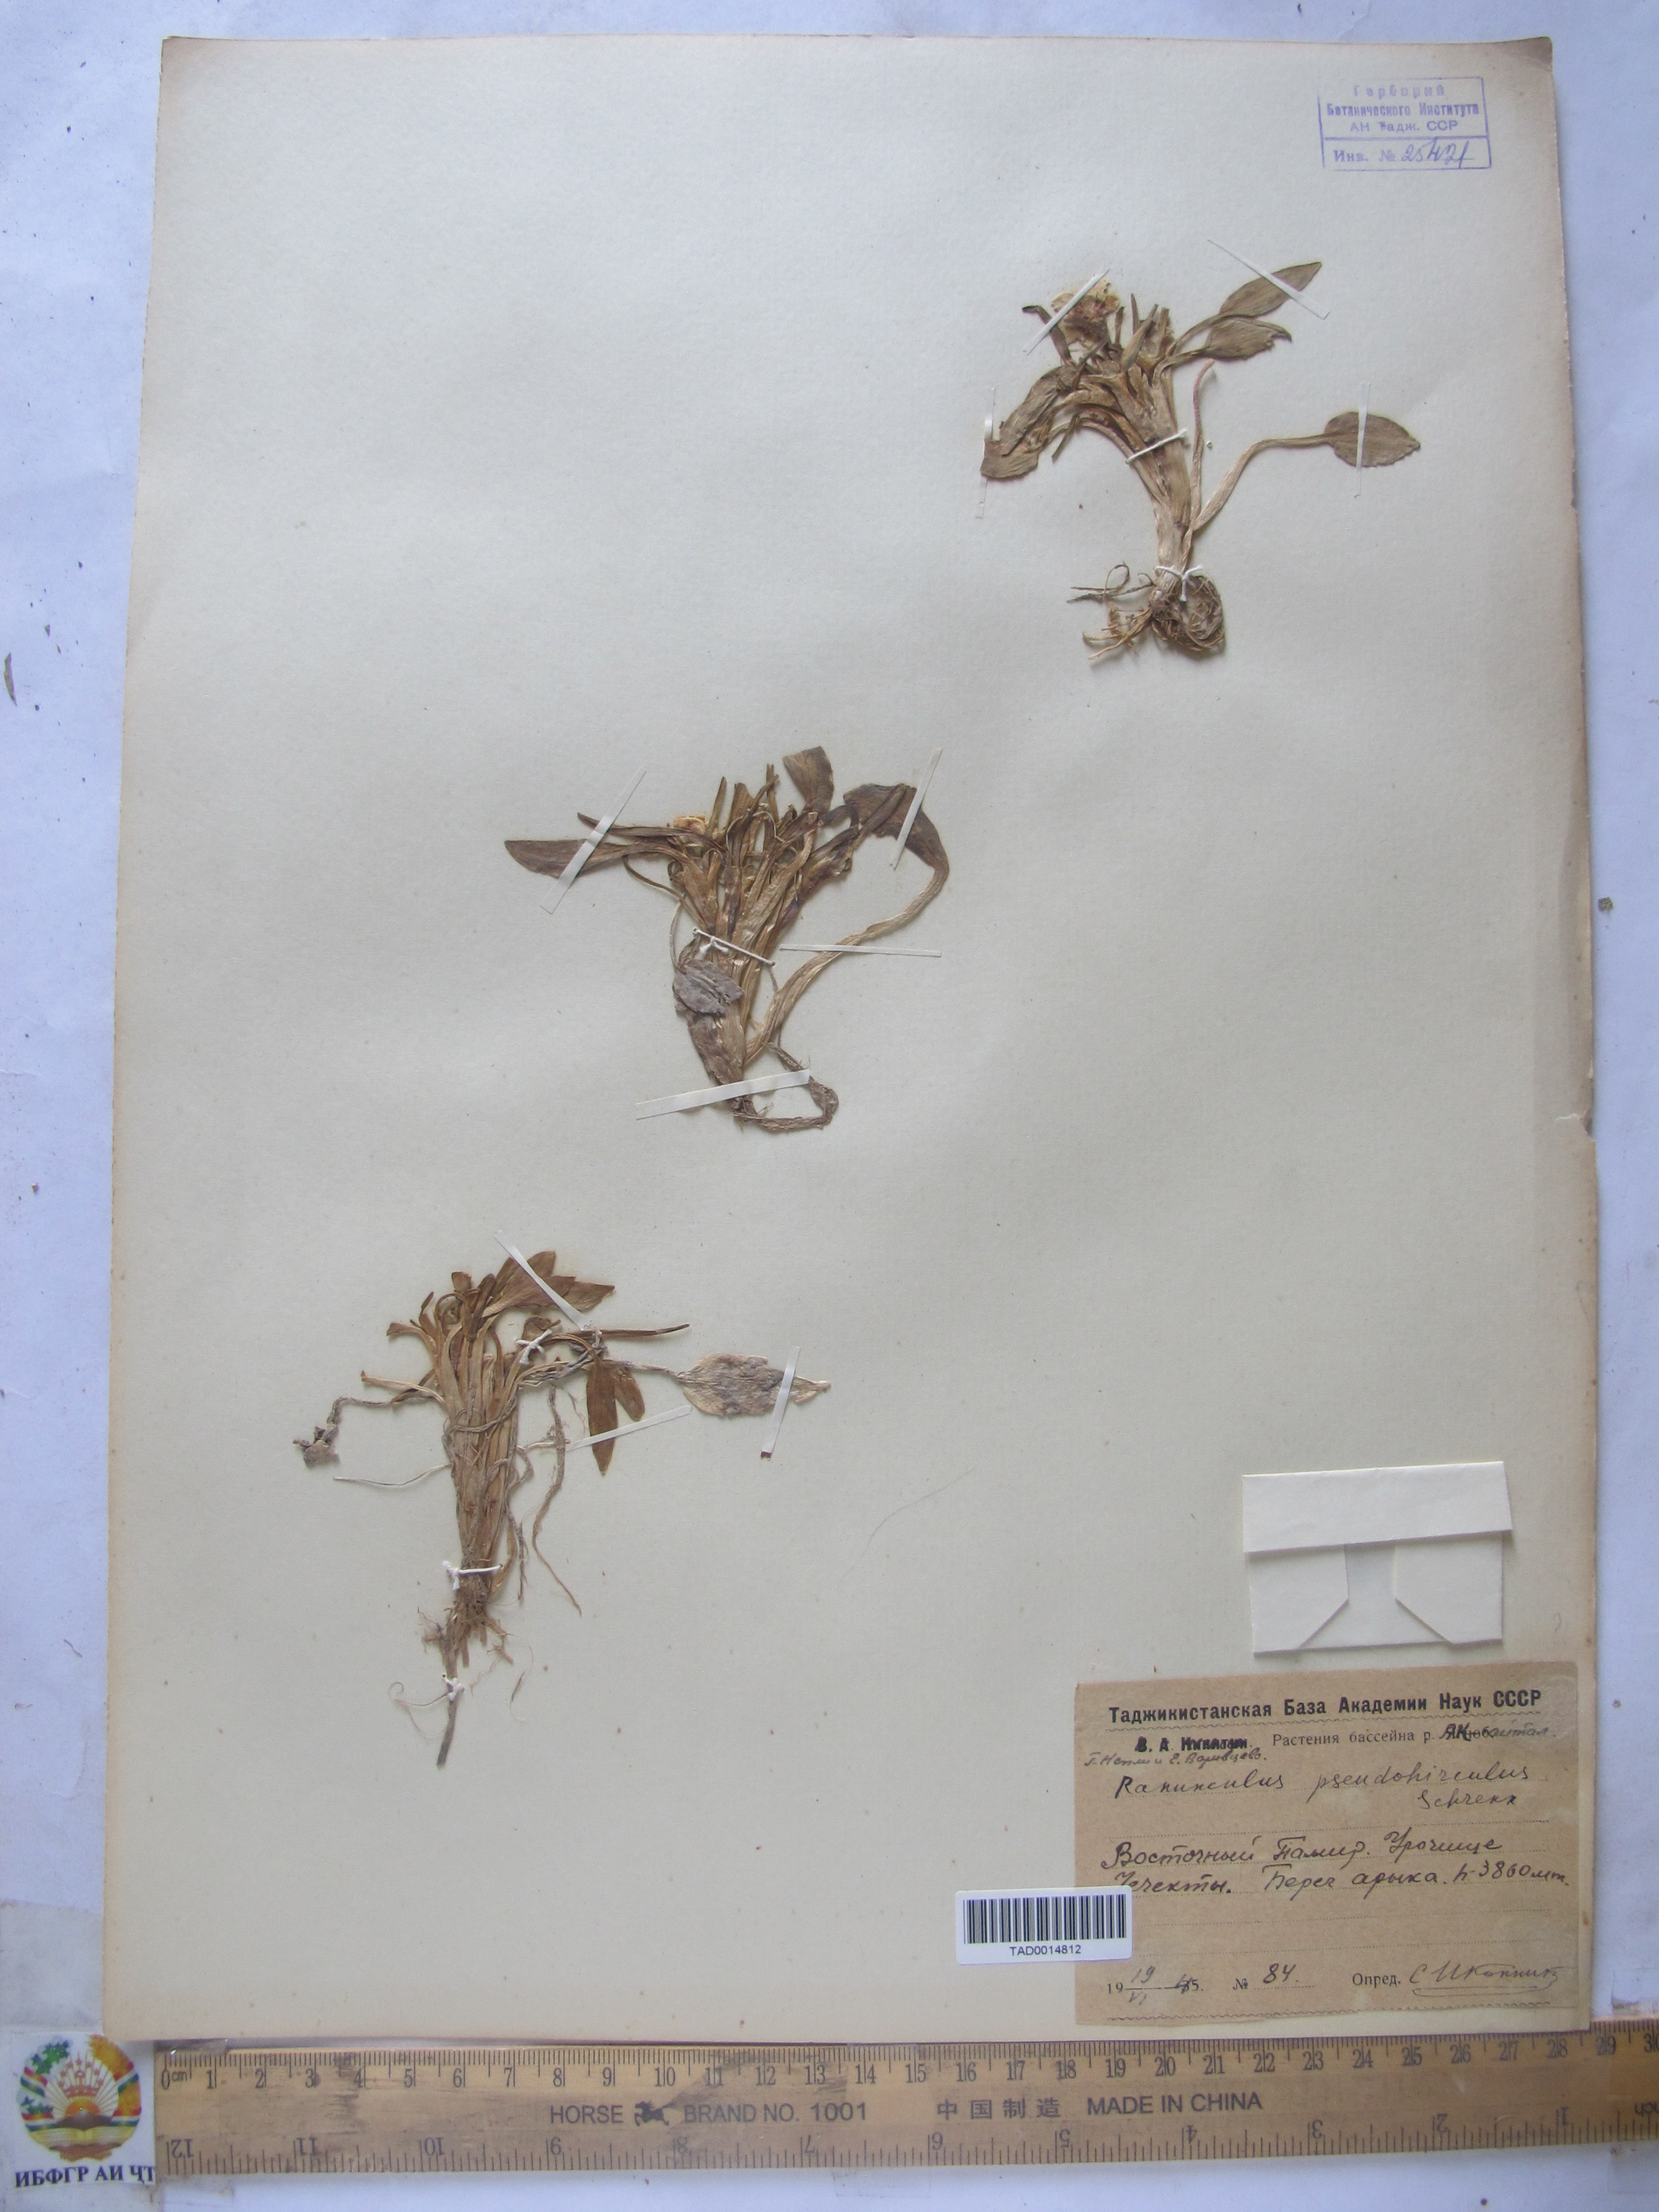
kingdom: Plantae
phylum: Tracheophyta
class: Magnoliopsida
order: Ranunculales
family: Ranunculaceae
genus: Ranunculus
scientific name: Ranunculus pseudohirculus
